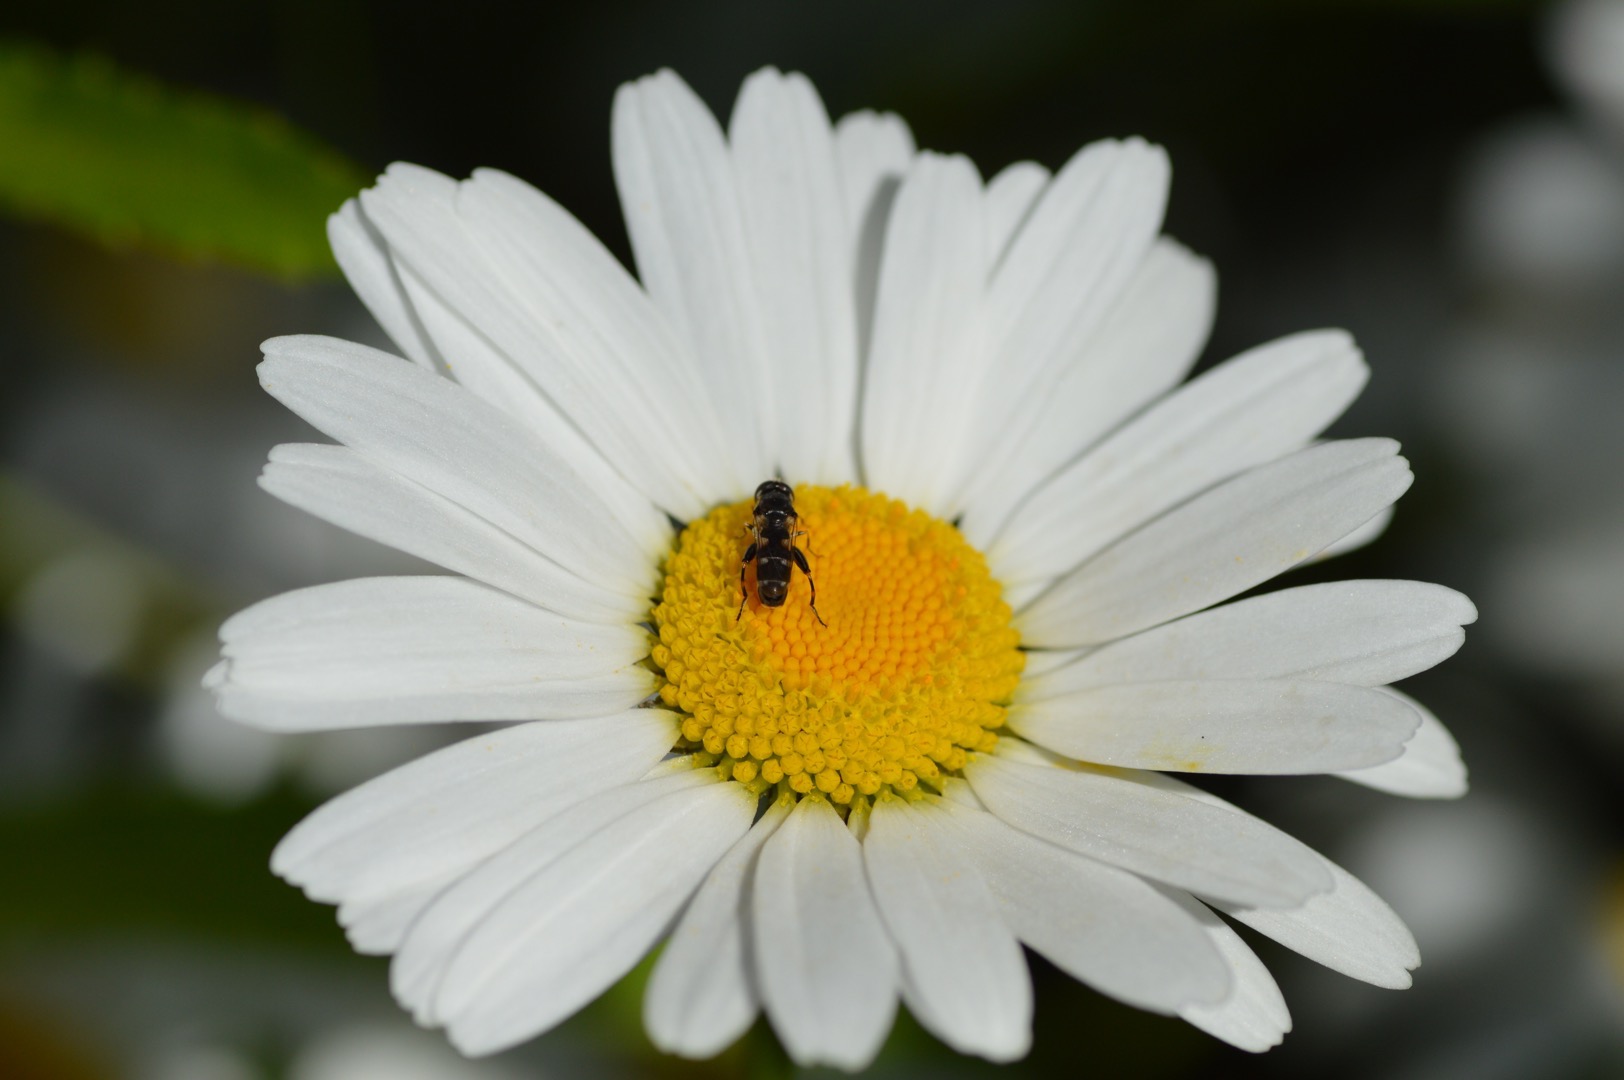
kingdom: Animalia
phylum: Arthropoda
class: Insecta
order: Diptera
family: Syrphidae
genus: Syritta
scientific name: Syritta pipiens
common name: Kompost-svirreflue
